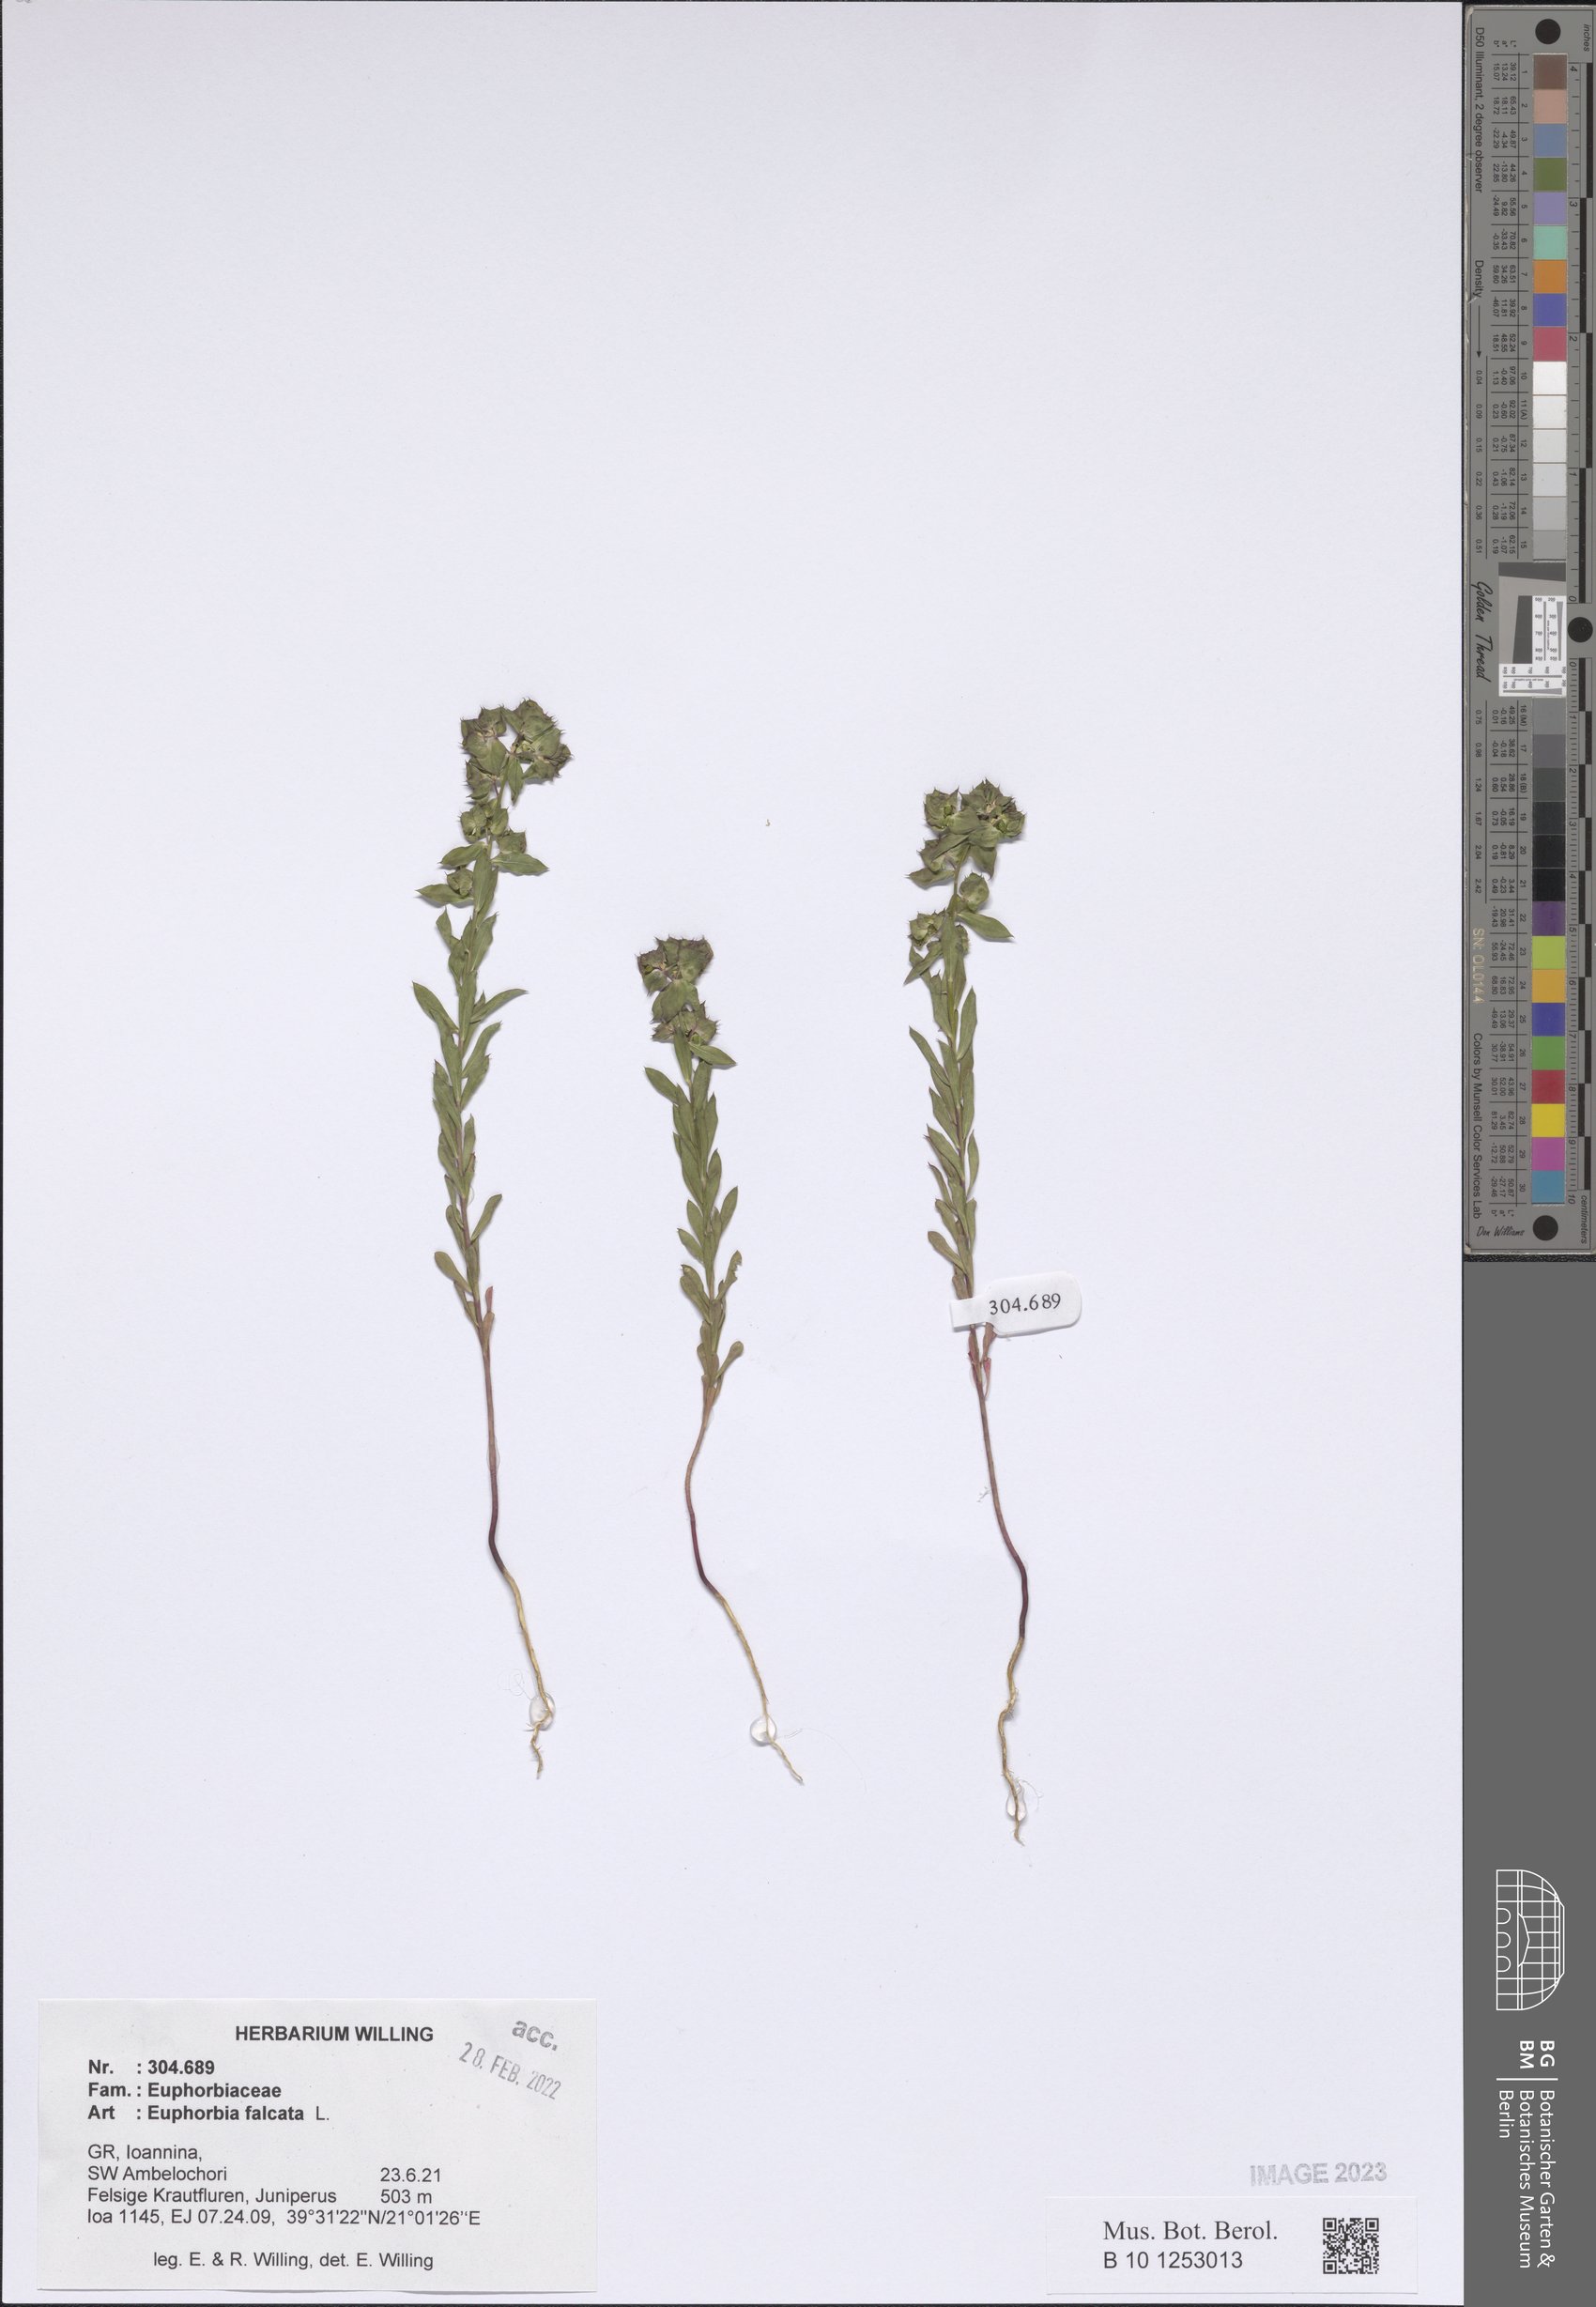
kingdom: Plantae
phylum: Tracheophyta
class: Magnoliopsida
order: Malpighiales
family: Euphorbiaceae
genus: Euphorbia
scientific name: Euphorbia falcata
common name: Sickle spurge
